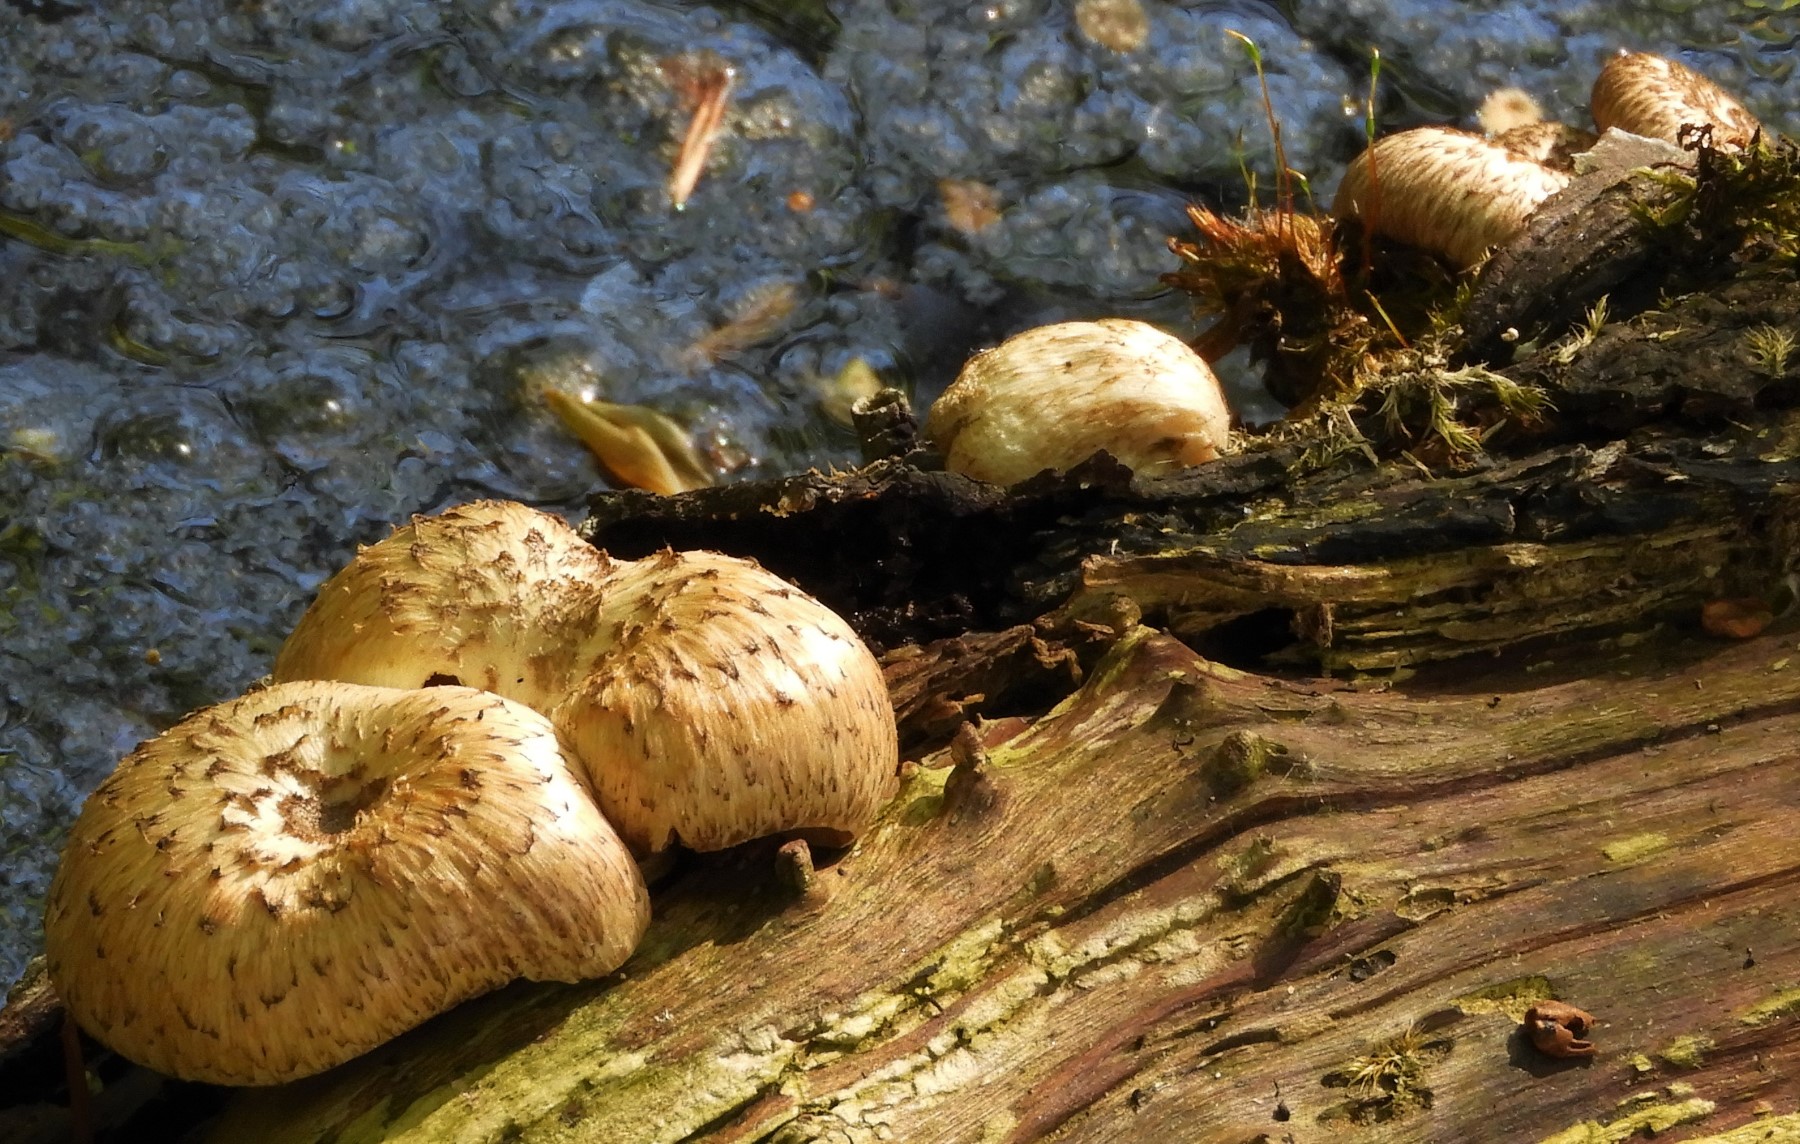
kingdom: Fungi
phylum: Basidiomycota
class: Agaricomycetes
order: Polyporales
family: Polyporaceae
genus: Lentinus
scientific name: Lentinus tigrinus
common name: tigerhat
